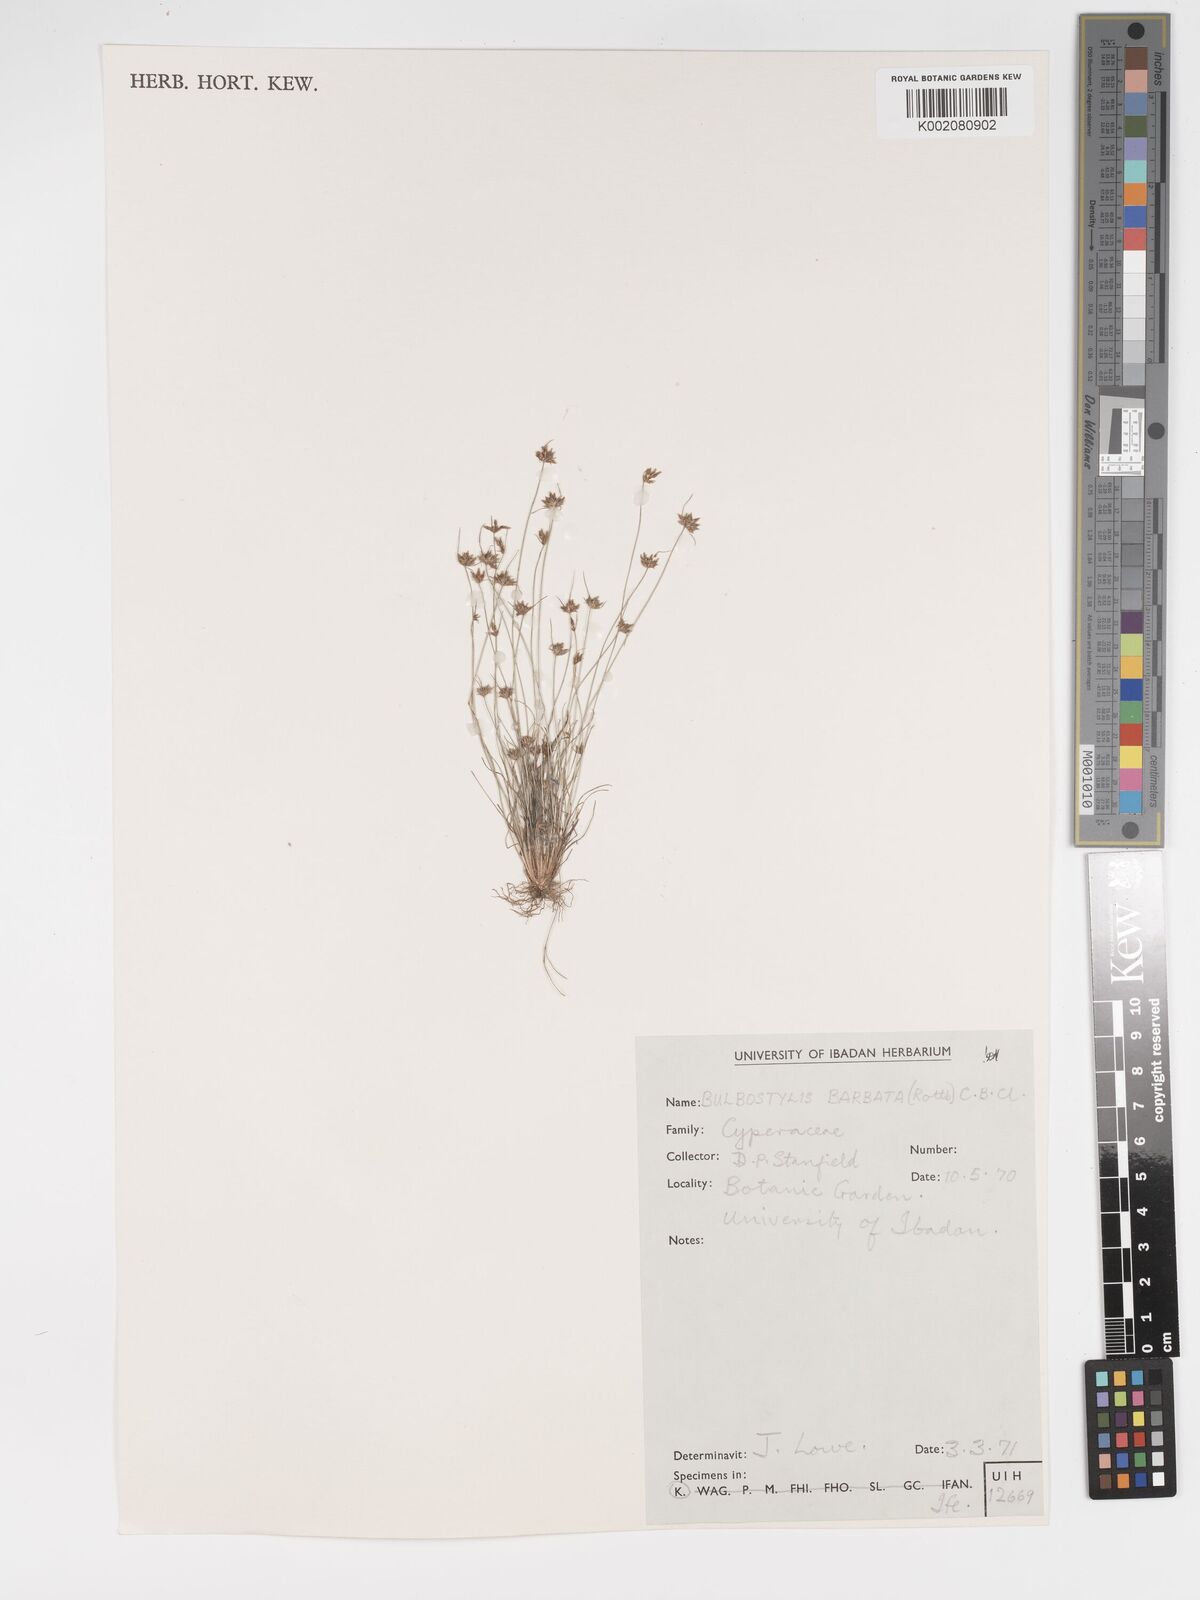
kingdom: Plantae
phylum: Tracheophyta
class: Liliopsida
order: Poales
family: Cyperaceae
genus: Bulbostylis
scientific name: Bulbostylis barbata
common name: Watergrass
